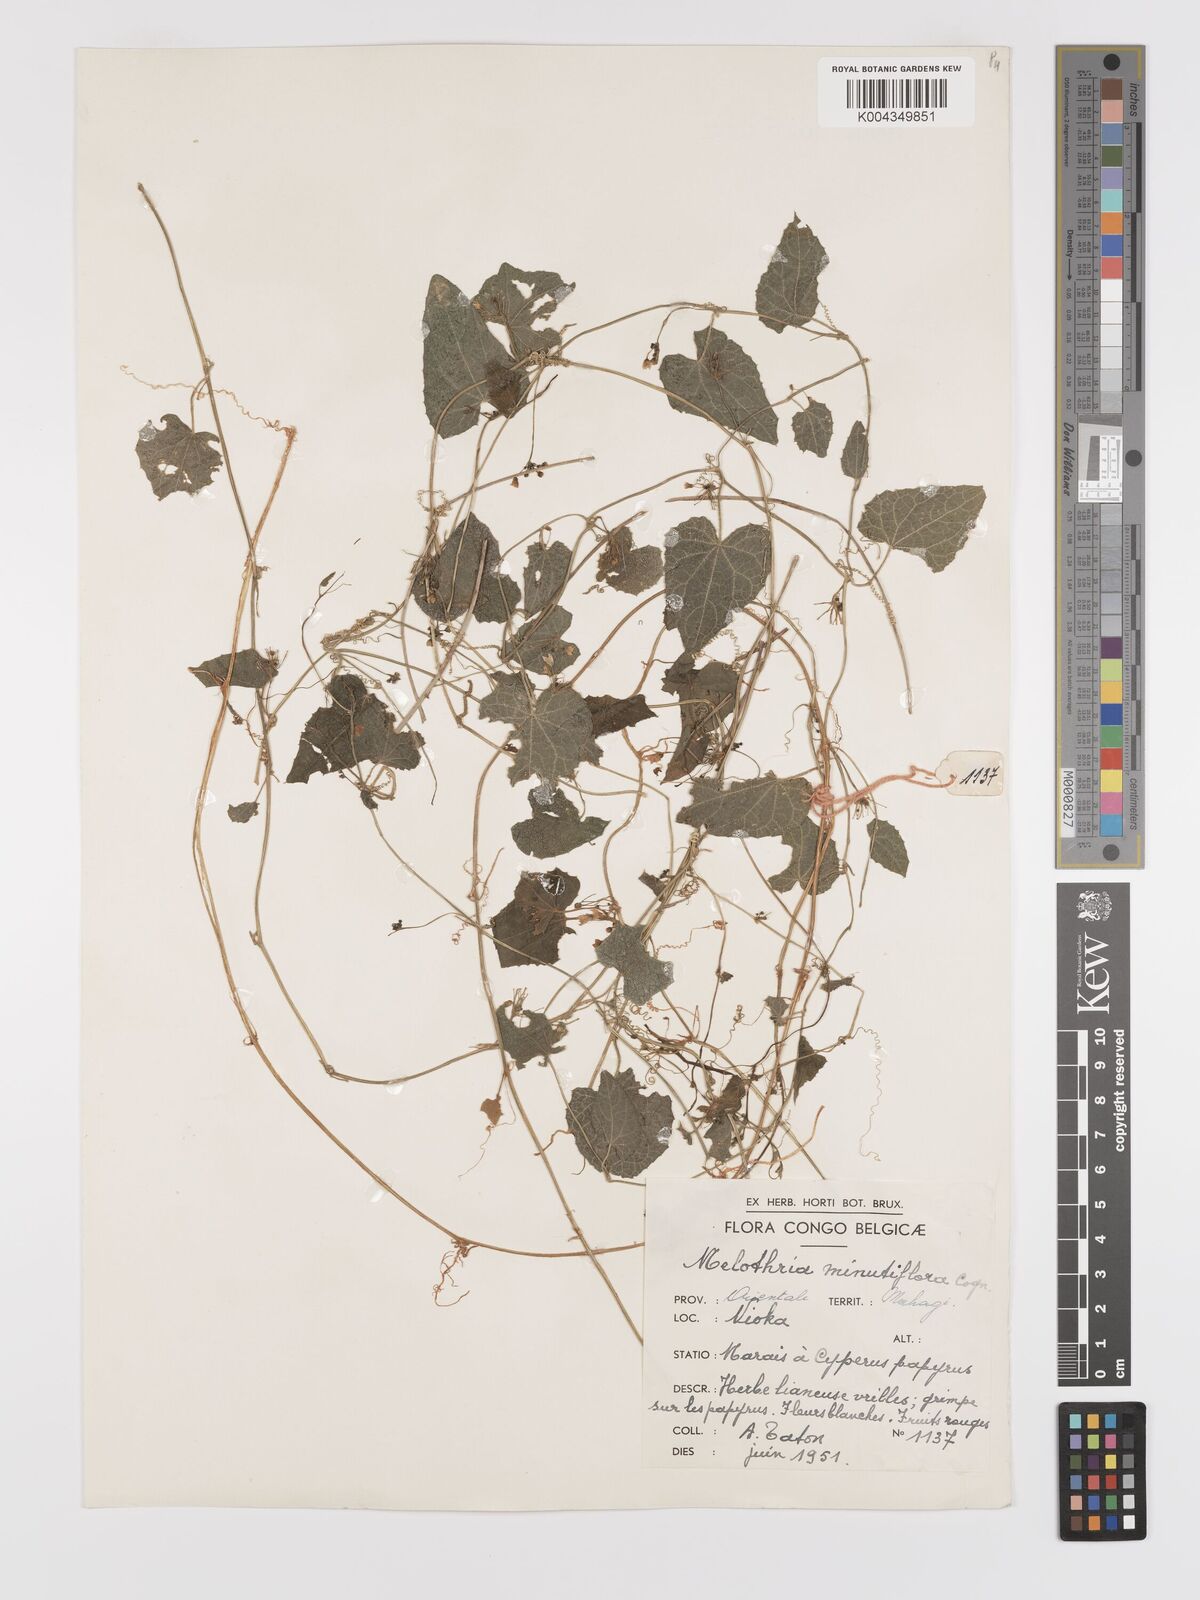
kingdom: Plantae
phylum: Tracheophyta
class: Magnoliopsida
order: Cucurbitales
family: Cucurbitaceae
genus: Zehneria
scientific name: Zehneria minutiflora
